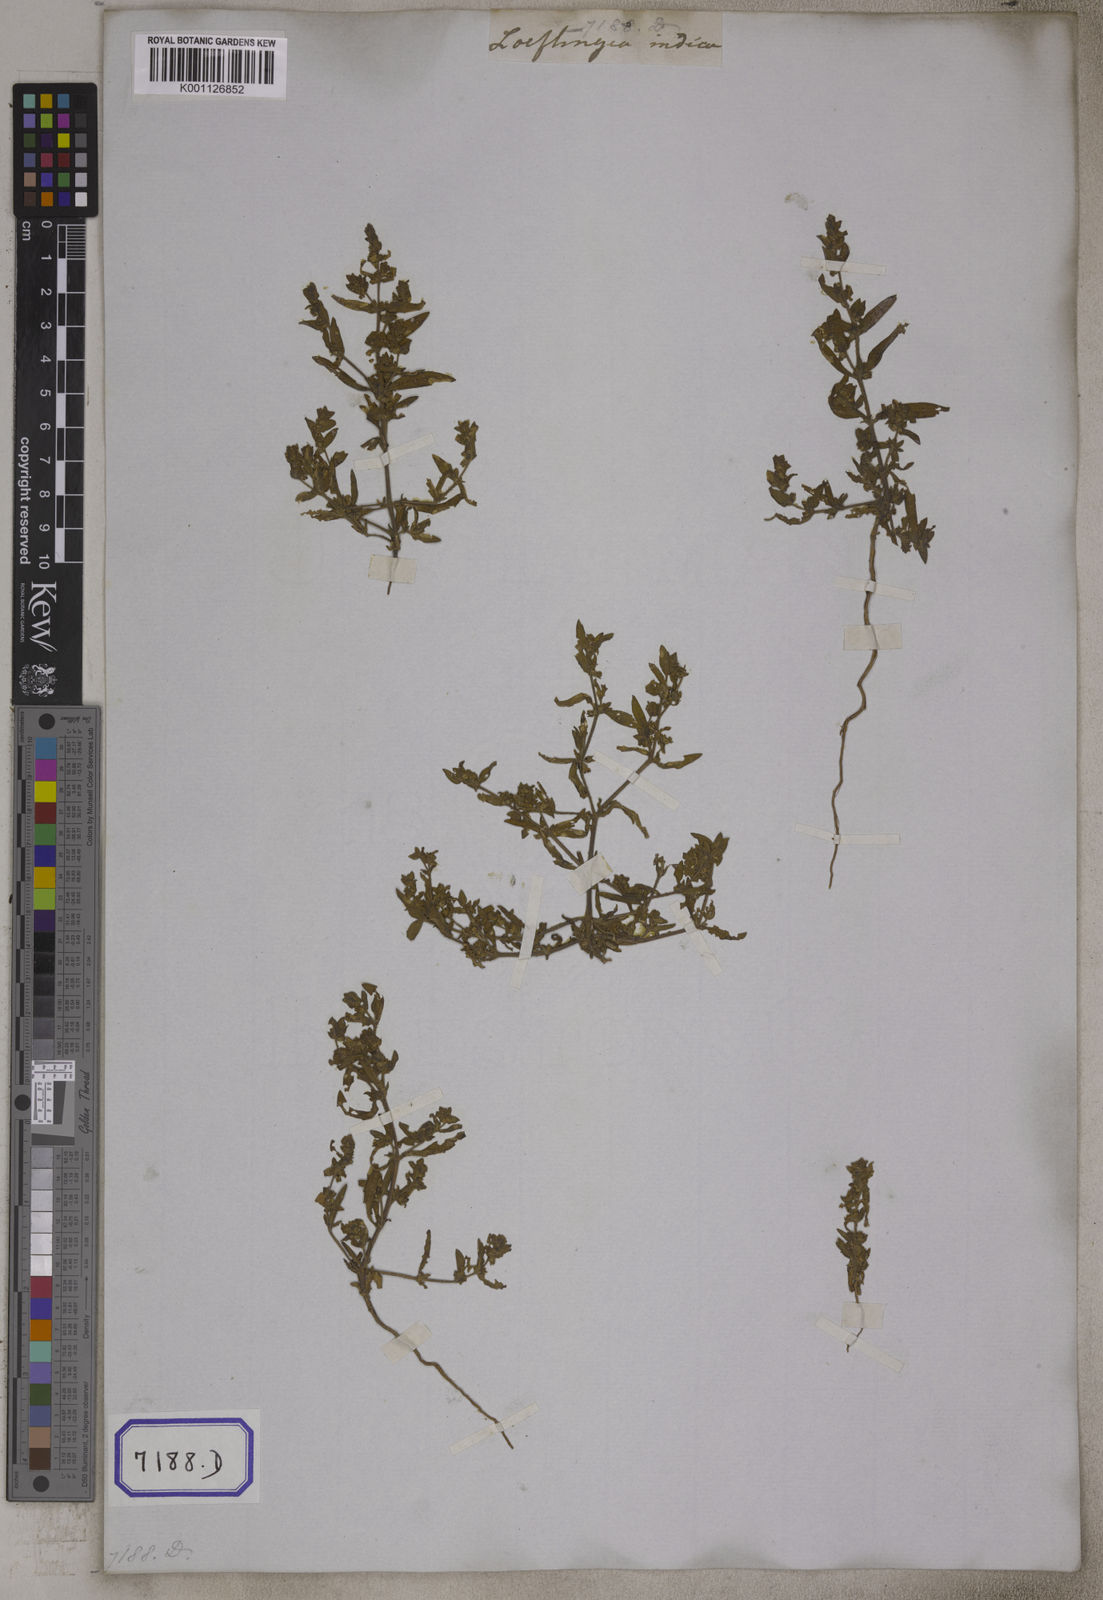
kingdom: Plantae
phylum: Tracheophyta
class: Magnoliopsida
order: Vahliales
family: Vahliaceae
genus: Vahlia
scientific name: Vahlia digyna
